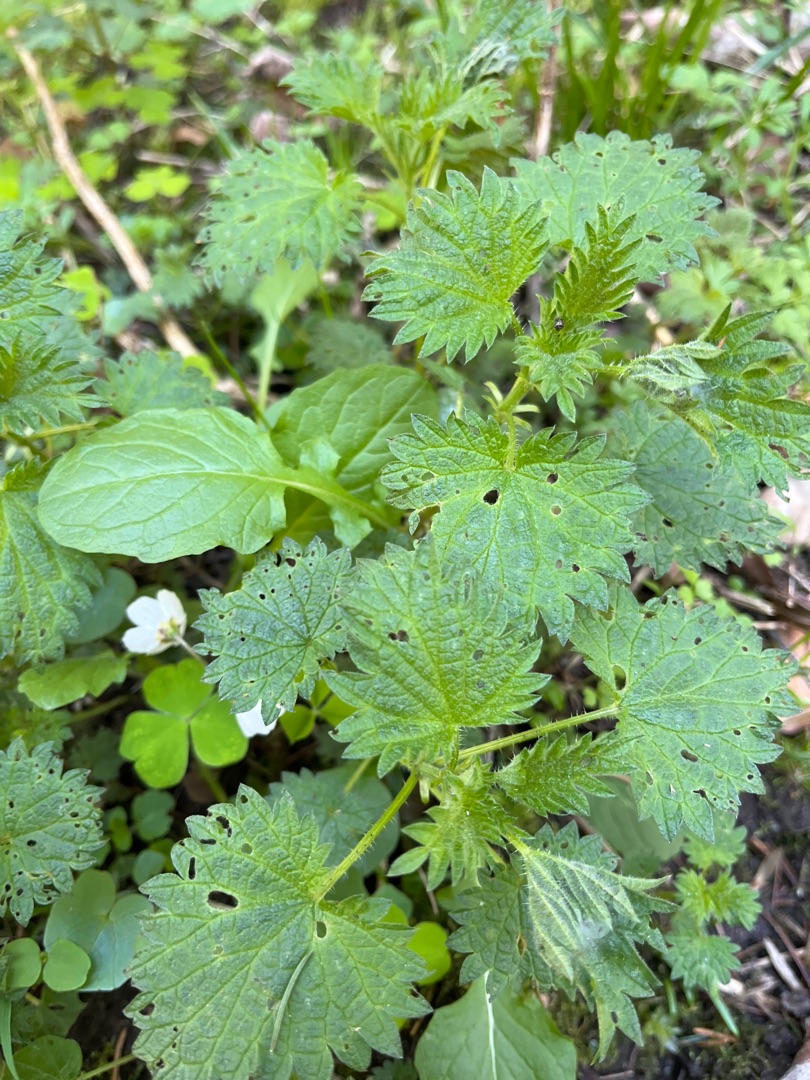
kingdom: Plantae
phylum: Tracheophyta
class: Magnoliopsida
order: Rosales
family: Urticaceae
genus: Urtica
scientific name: Urtica dioica
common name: Stor nælde
